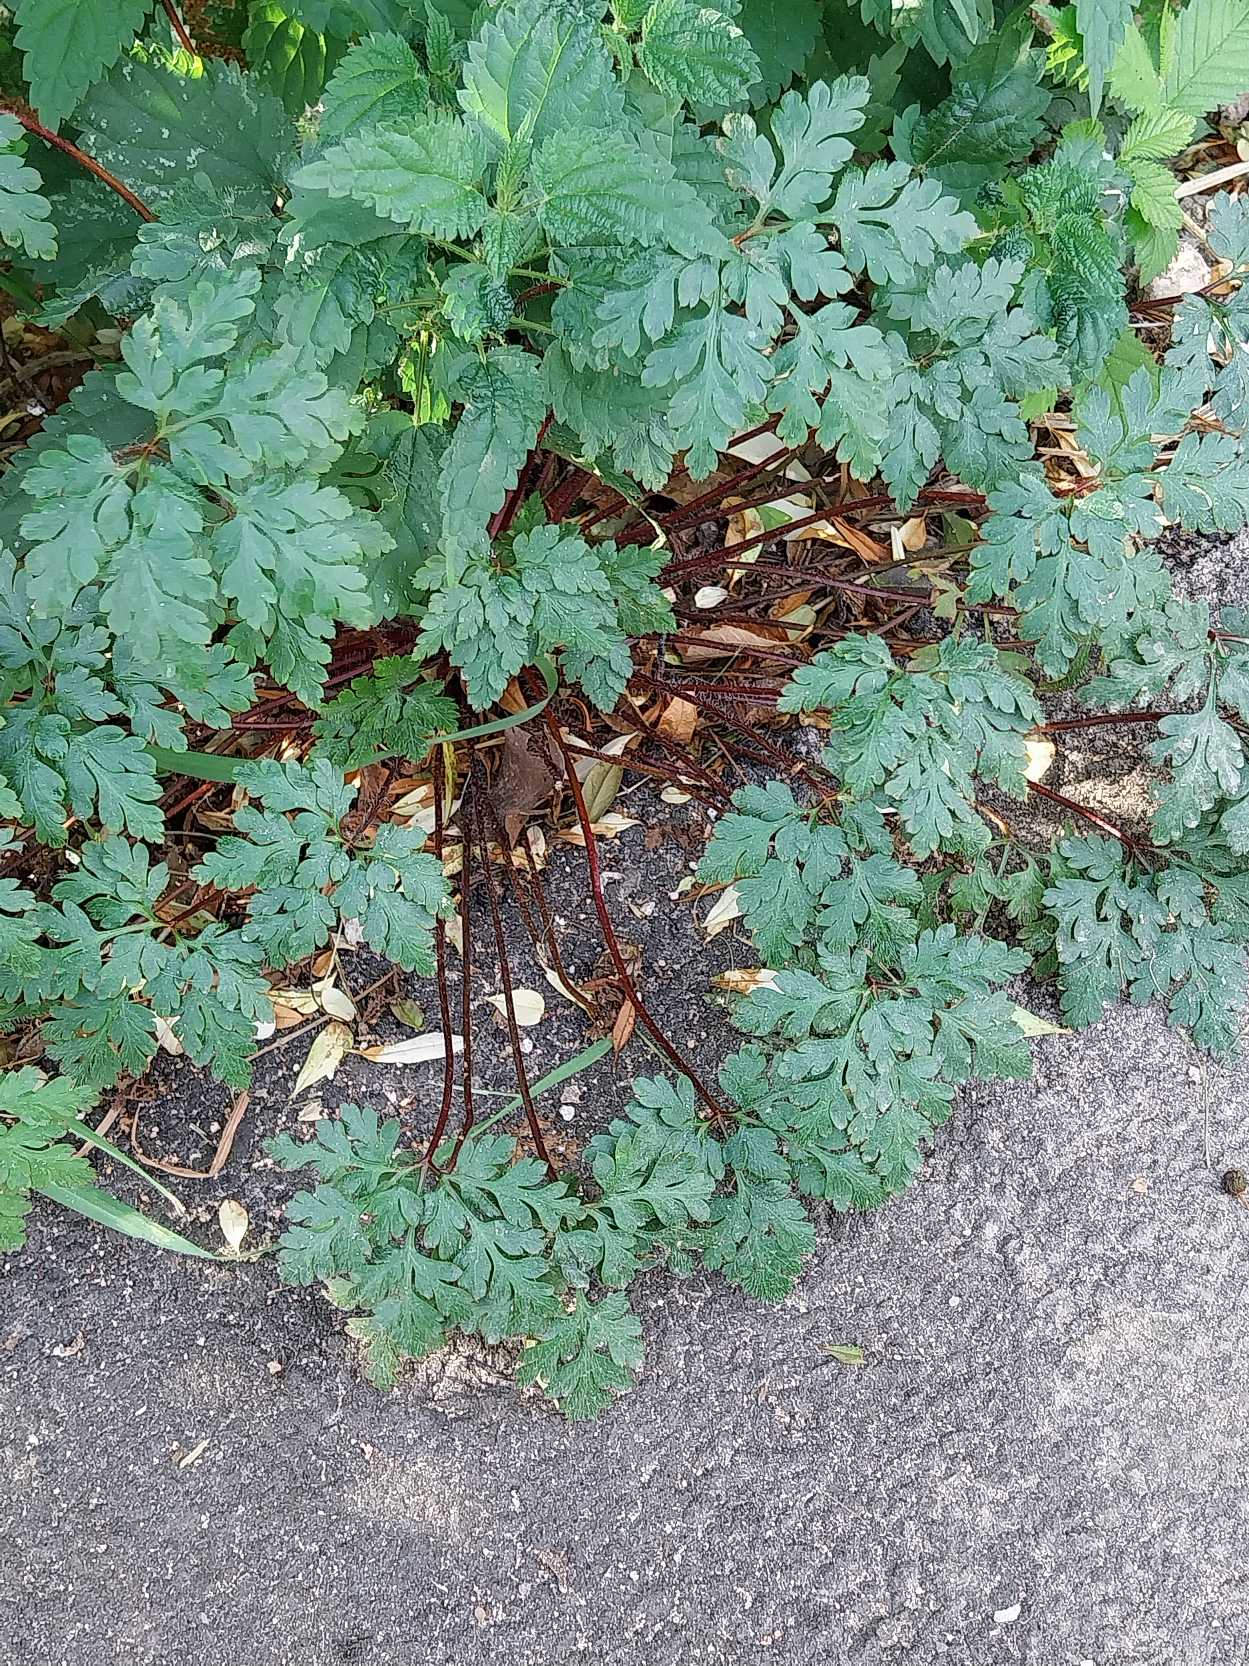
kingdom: Plantae
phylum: Tracheophyta
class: Magnoliopsida
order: Geraniales
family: Geraniaceae
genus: Geranium
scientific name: Geranium robertianum
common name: Stinkende storkenæb
